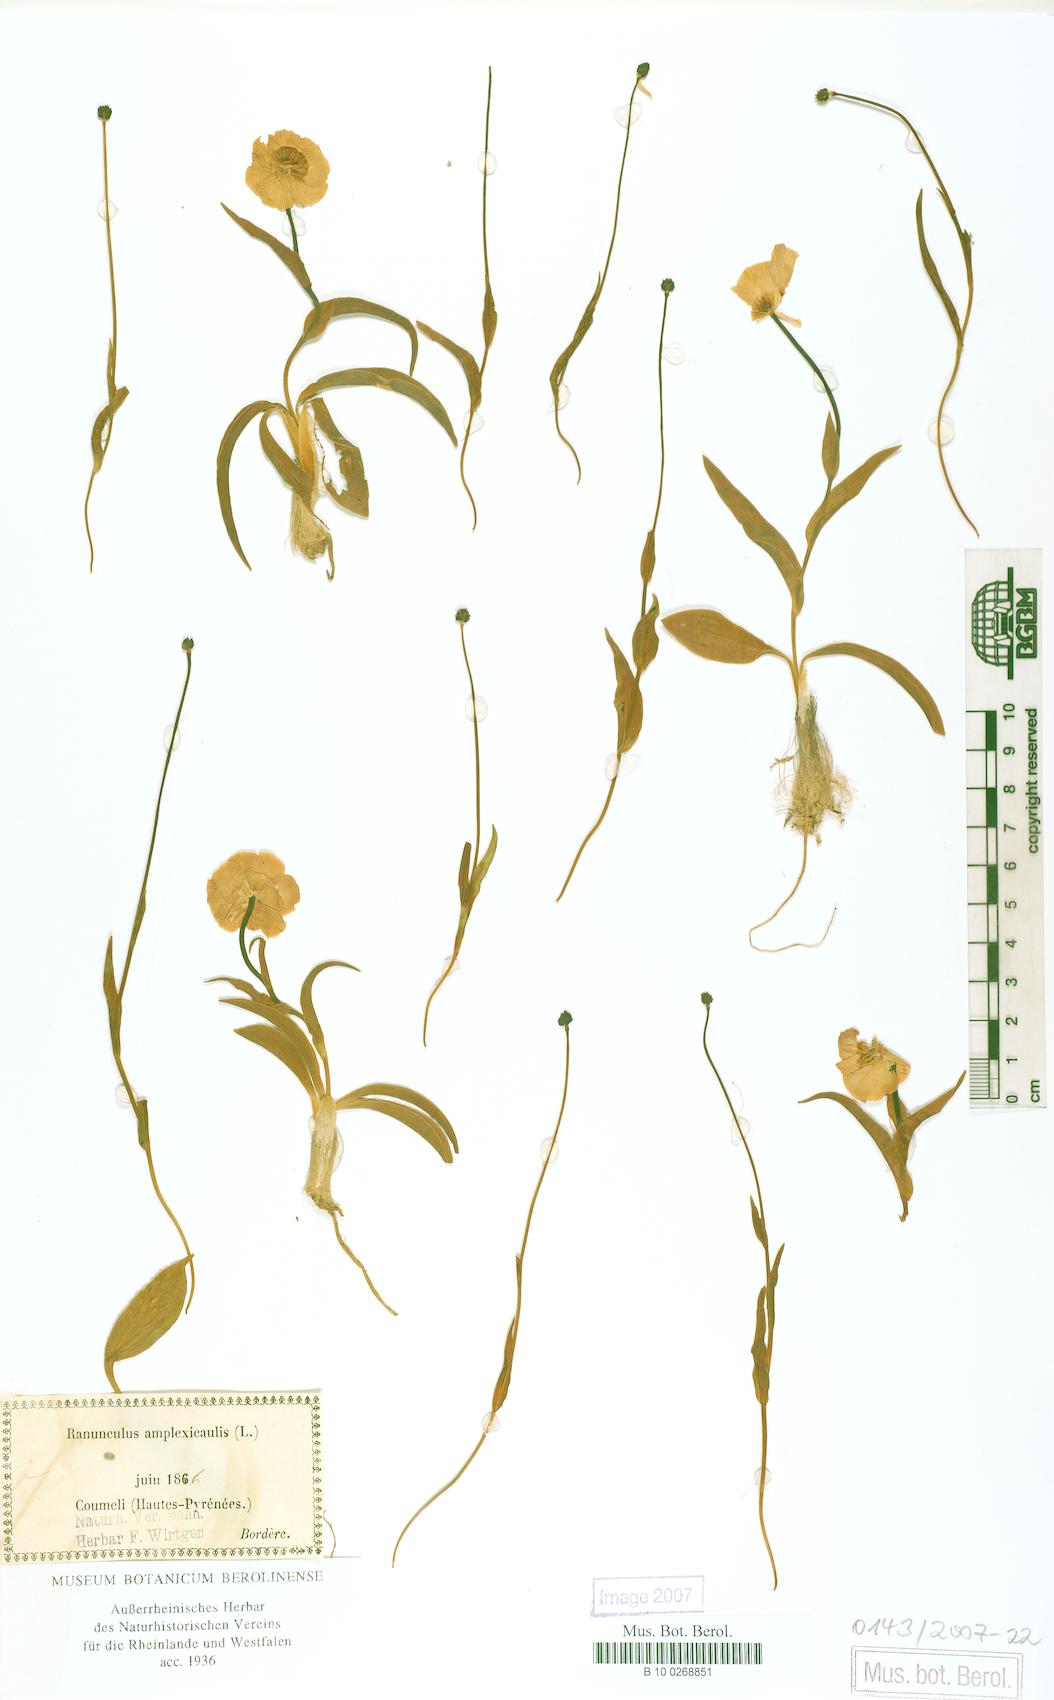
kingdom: Plantae
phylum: Tracheophyta
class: Magnoliopsida
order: Ranunculales
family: Ranunculaceae
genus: Ranunculus
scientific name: Ranunculus amplexicaulis
